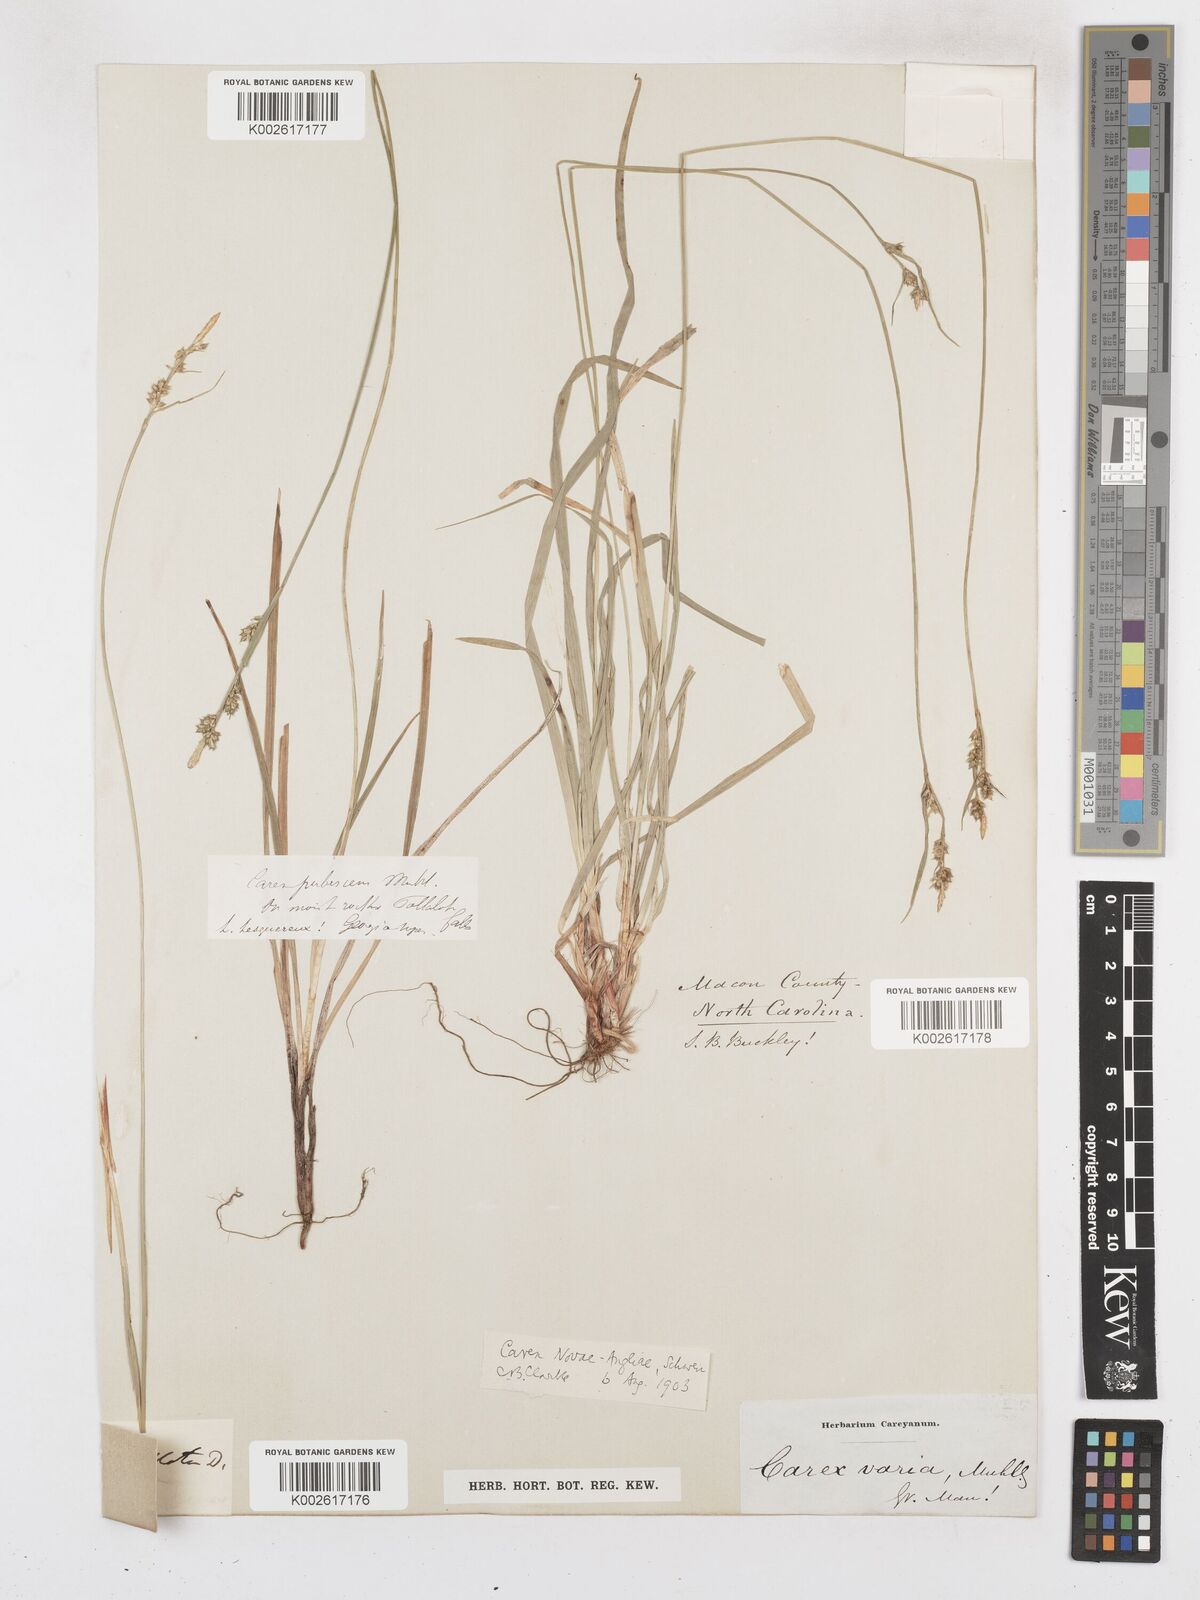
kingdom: Plantae
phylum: Tracheophyta
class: Liliopsida
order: Poales
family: Cyperaceae
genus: Carex
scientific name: Carex novae-angliae
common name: New england sedge
